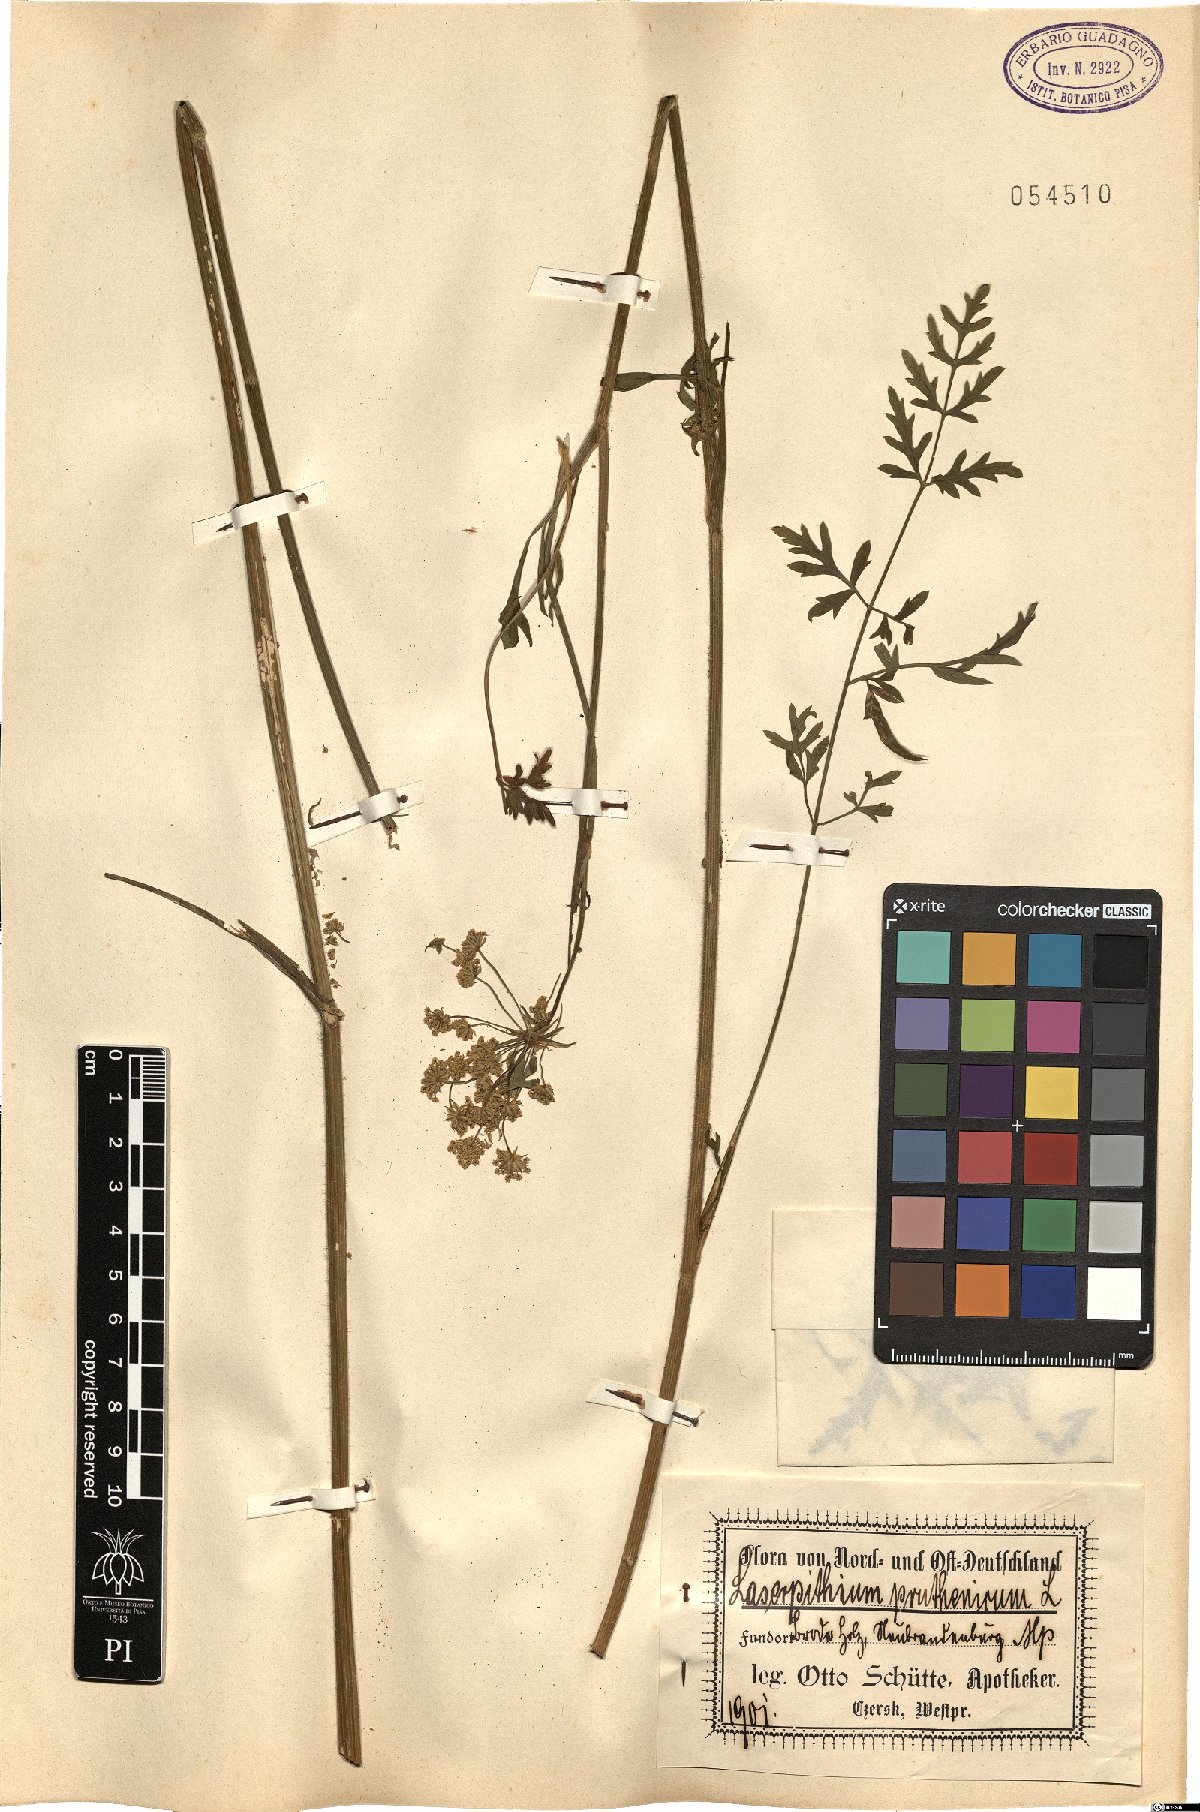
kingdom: Plantae
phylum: Tracheophyta
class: Magnoliopsida
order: Apiales
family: Apiaceae
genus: Silphiodaucus
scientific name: Silphiodaucus prutenicus
